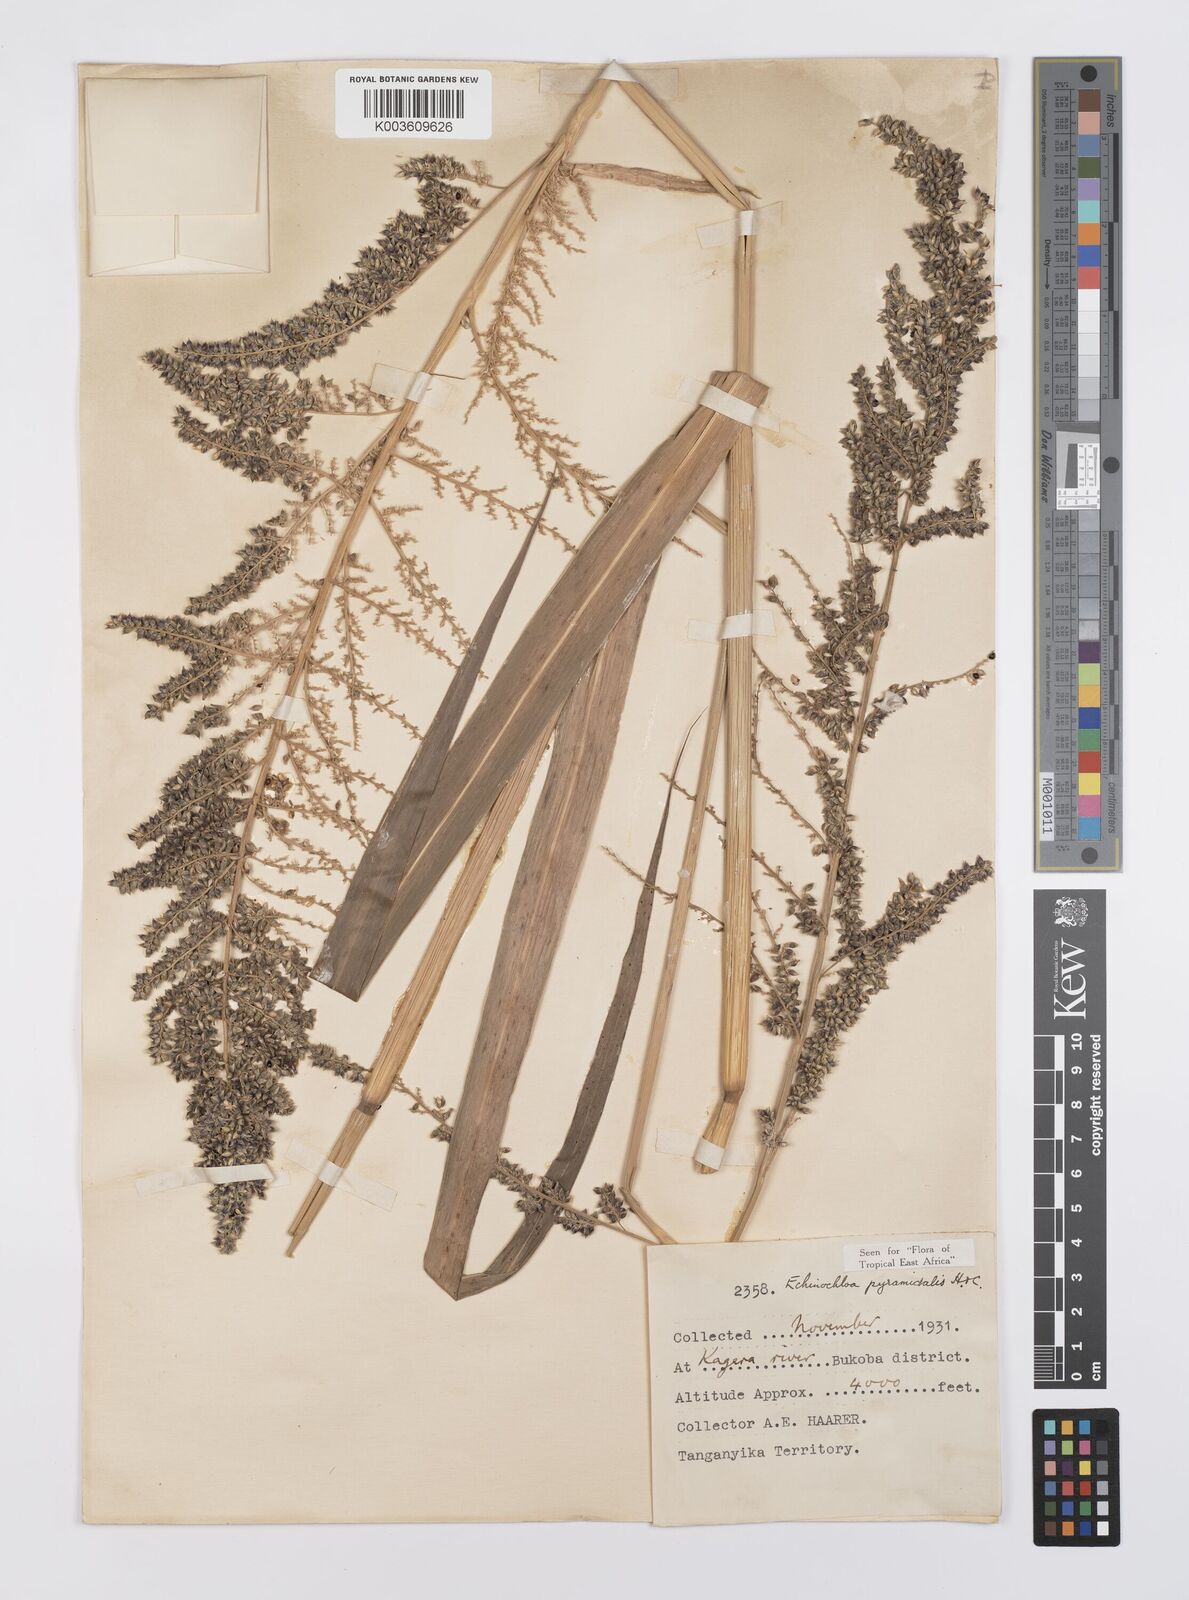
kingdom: Plantae
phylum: Tracheophyta
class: Liliopsida
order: Poales
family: Poaceae
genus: Echinochloa
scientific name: Echinochloa pyramidalis
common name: Antelope grass
